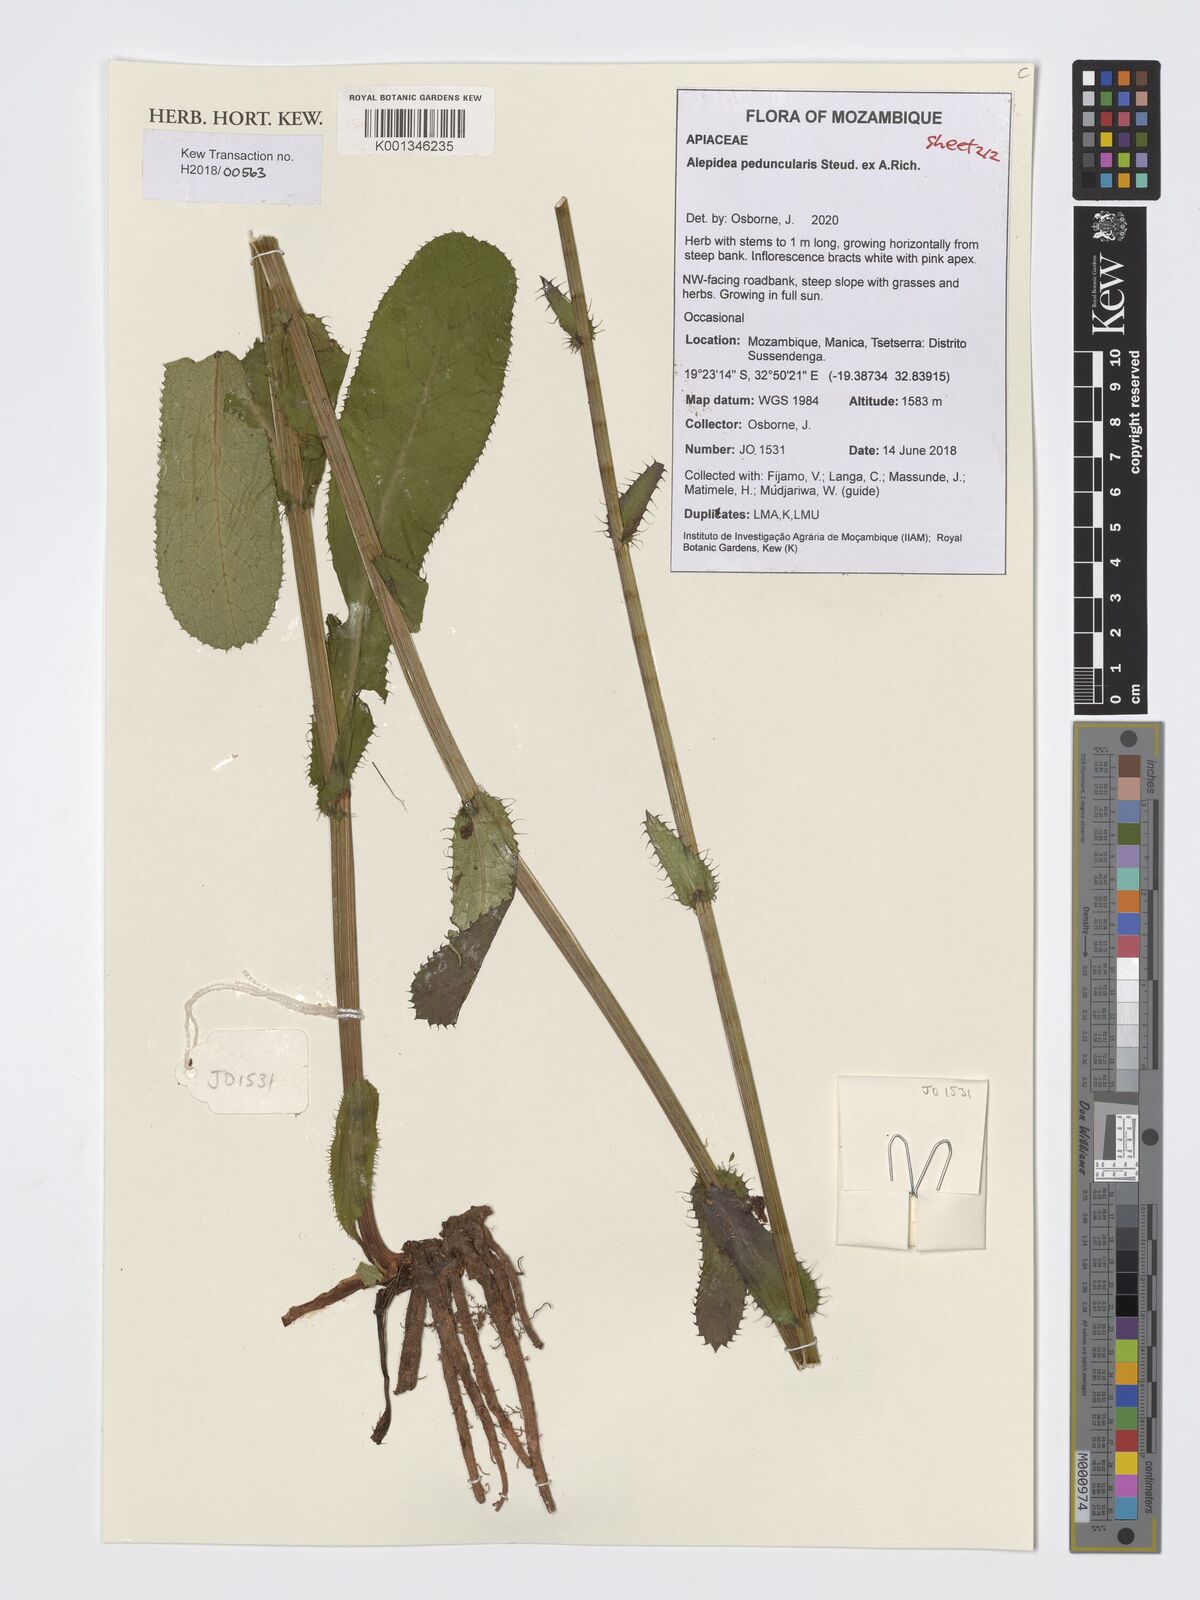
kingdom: Plantae
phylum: Tracheophyta
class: Magnoliopsida
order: Apiales
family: Apiaceae
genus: Alepidea
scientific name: Alepidea peduncularis
